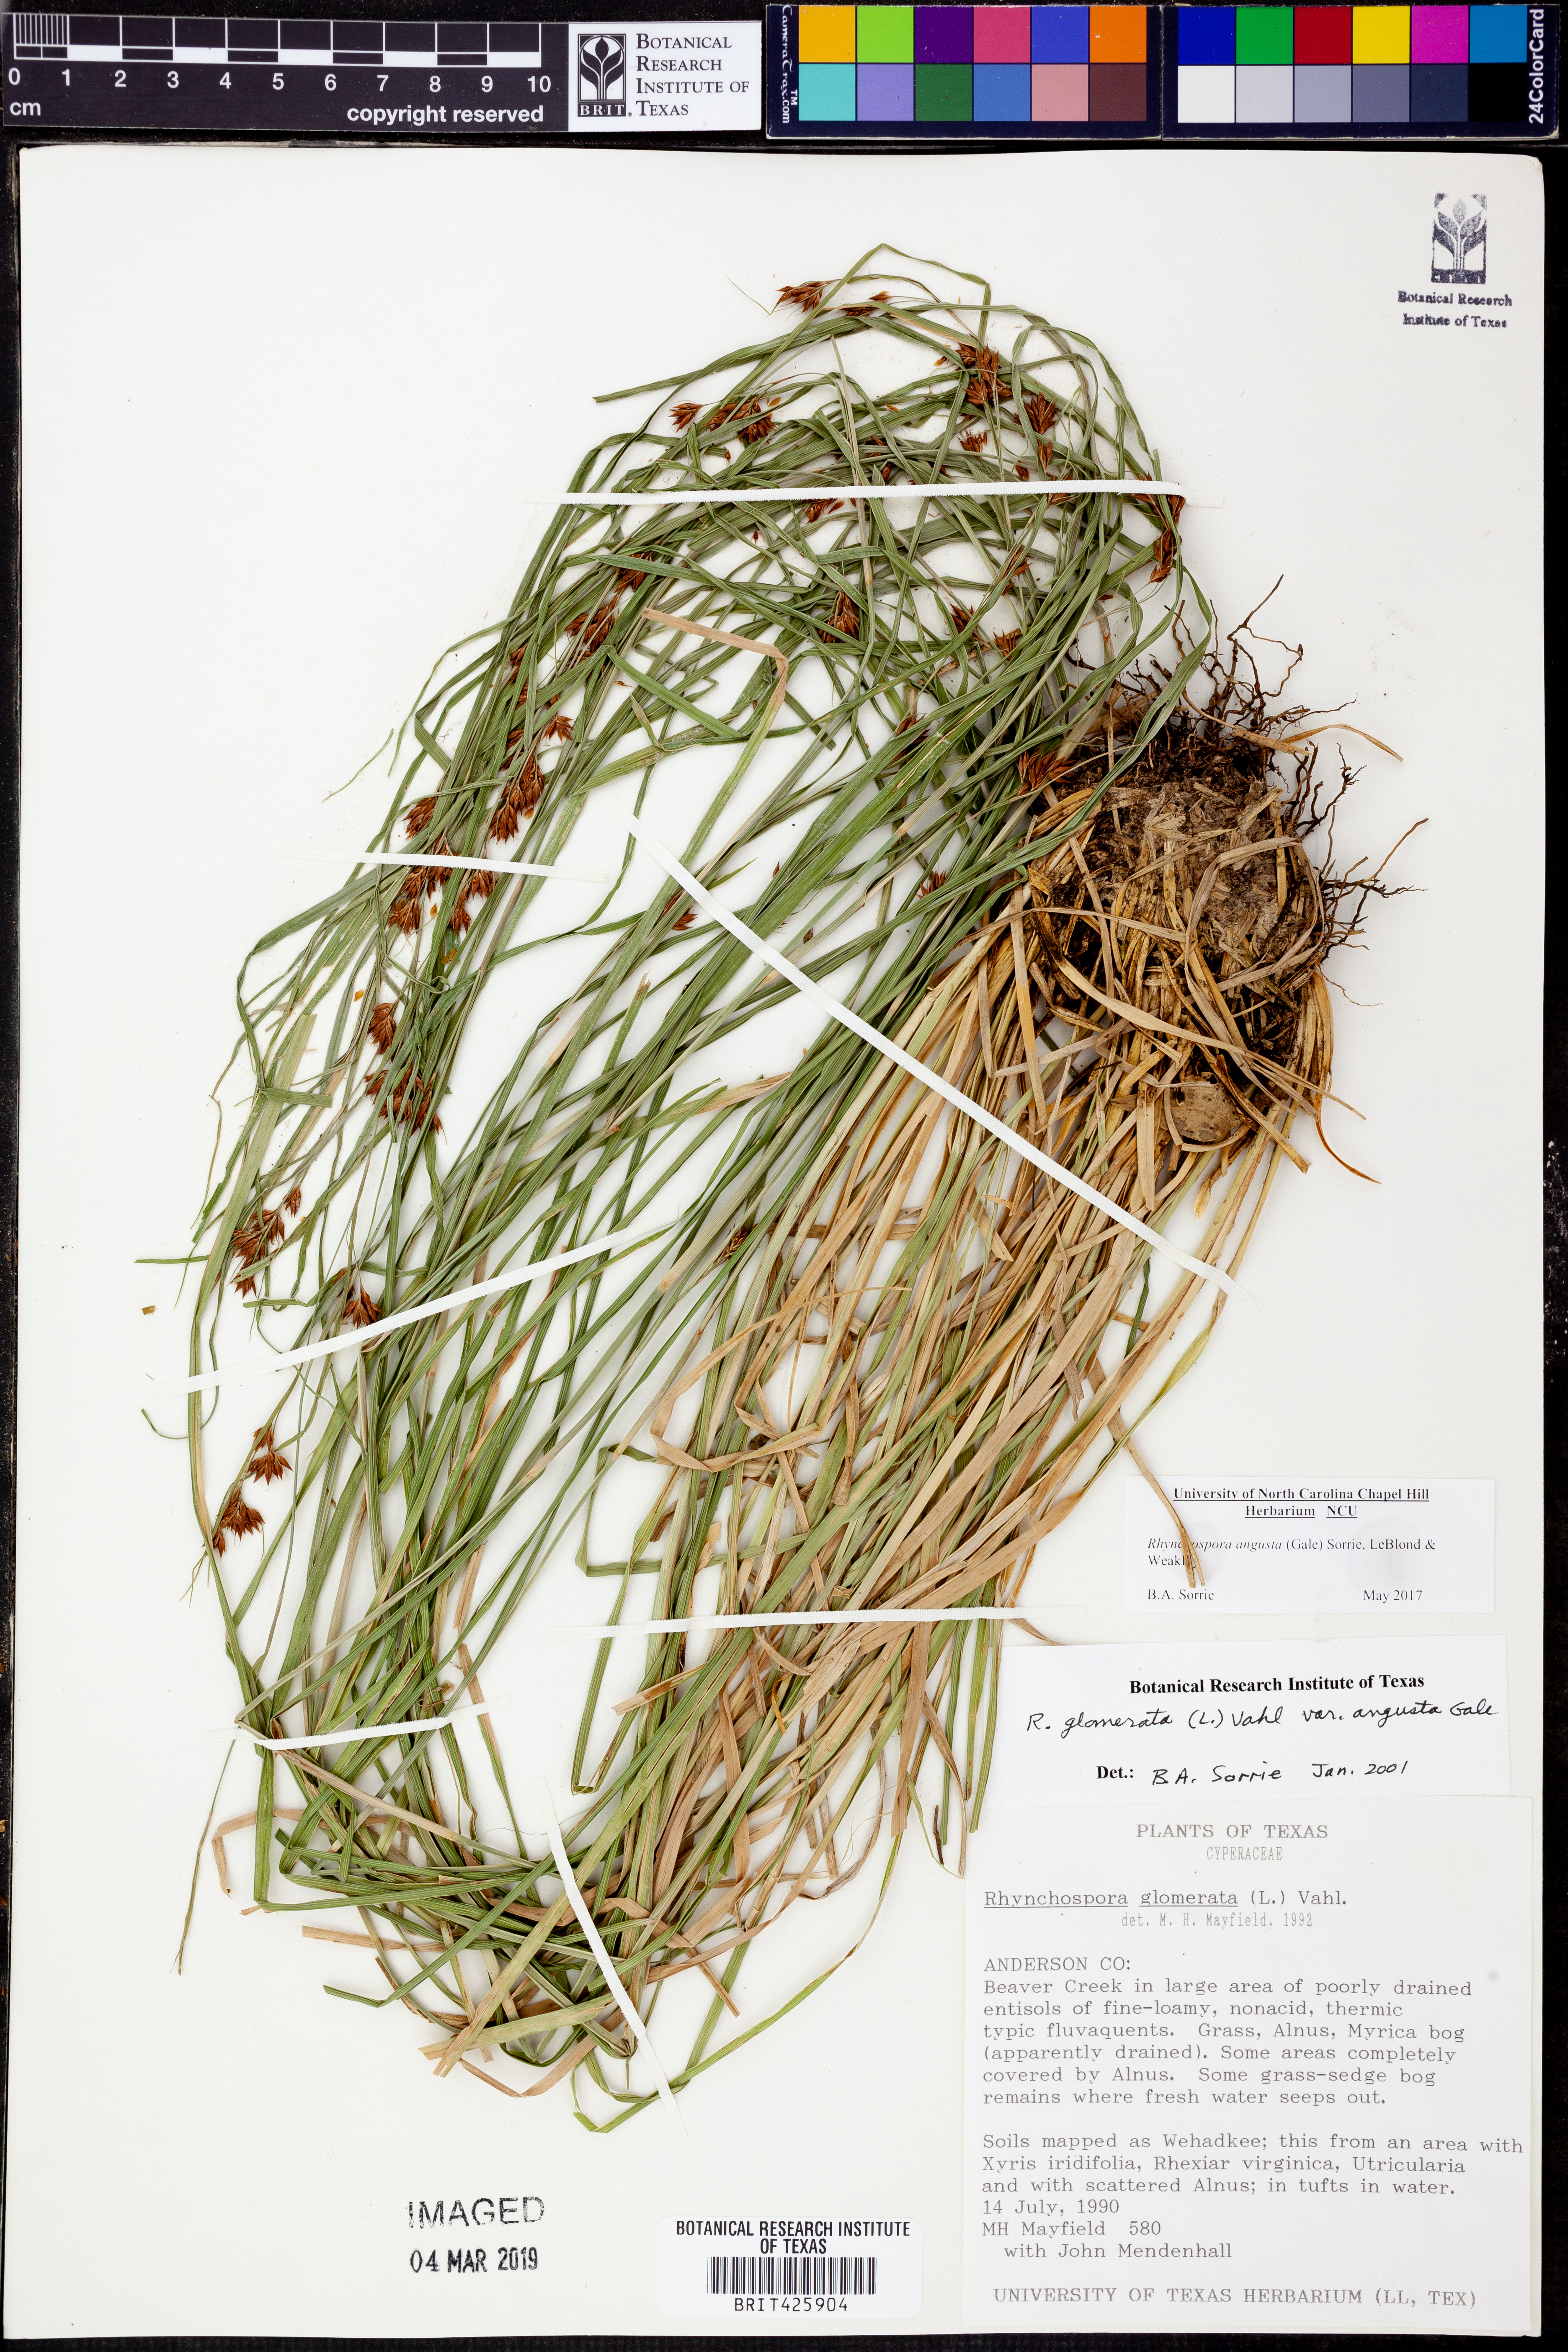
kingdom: Plantae
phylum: Tracheophyta
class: Liliopsida
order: Poales
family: Cyperaceae
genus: Rhynchospora
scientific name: Rhynchospora angusta
